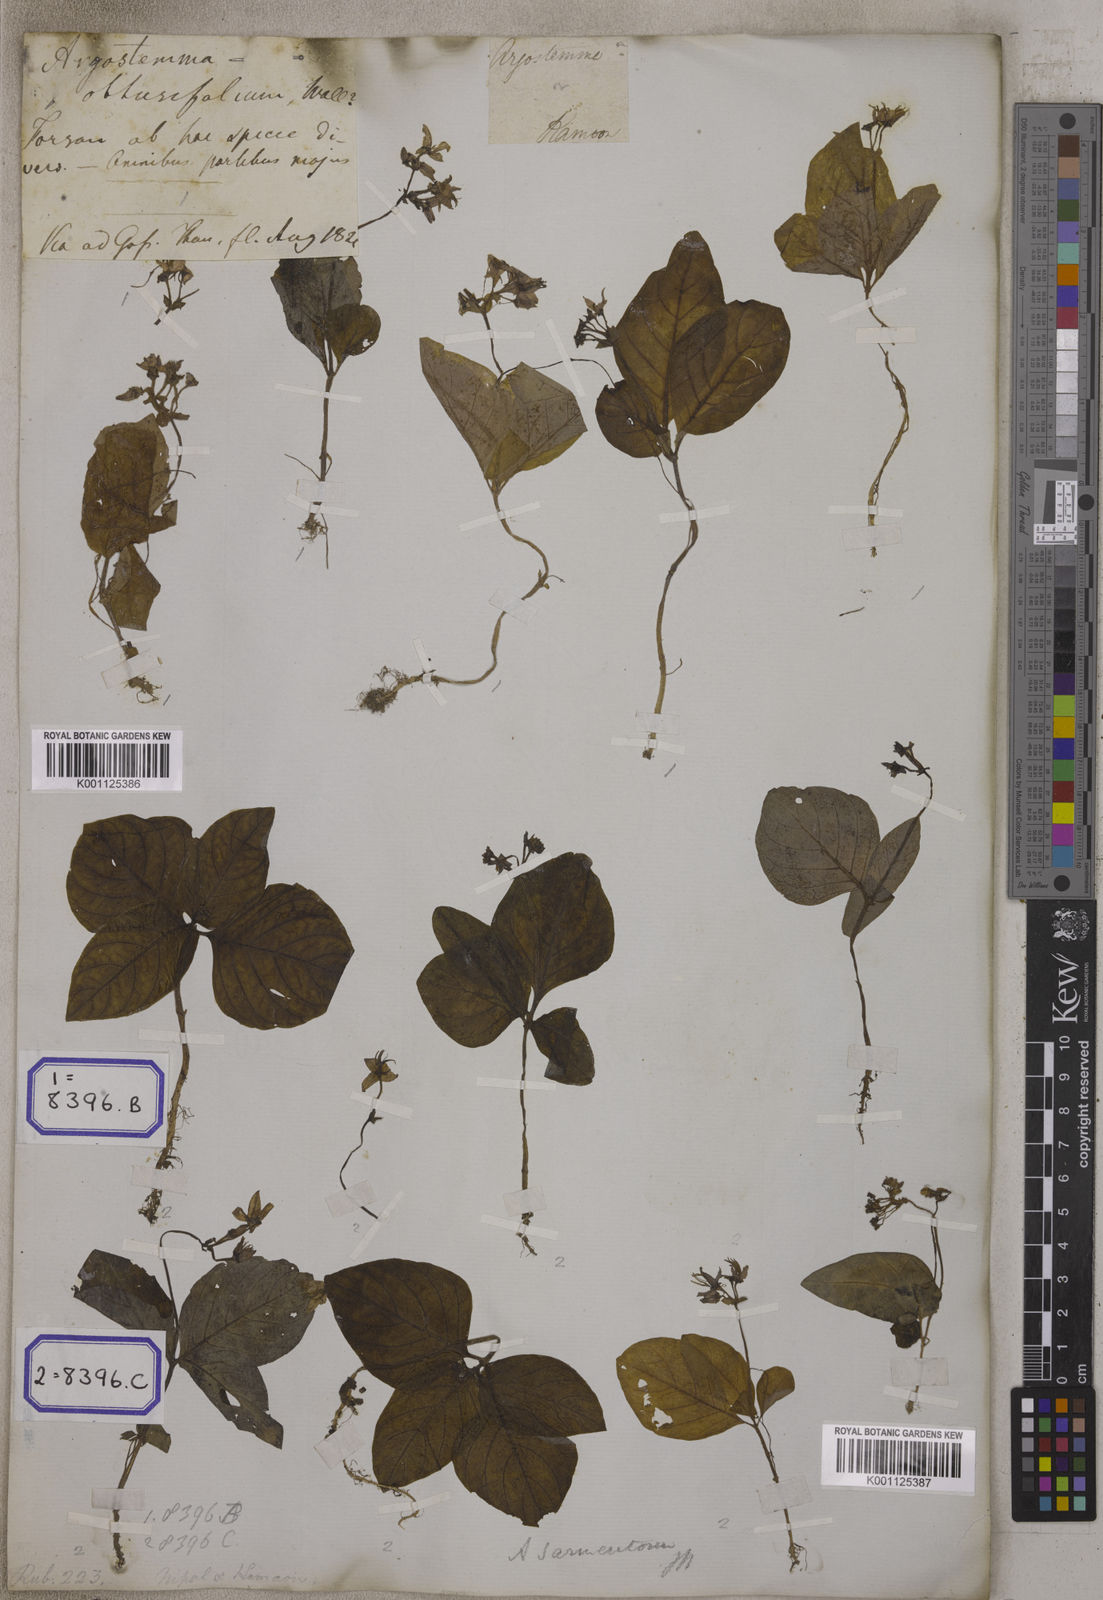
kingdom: Plantae
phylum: Tracheophyta
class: Magnoliopsida
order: Gentianales
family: Rubiaceae
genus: Argostemma
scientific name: Argostemma sarmentosum
